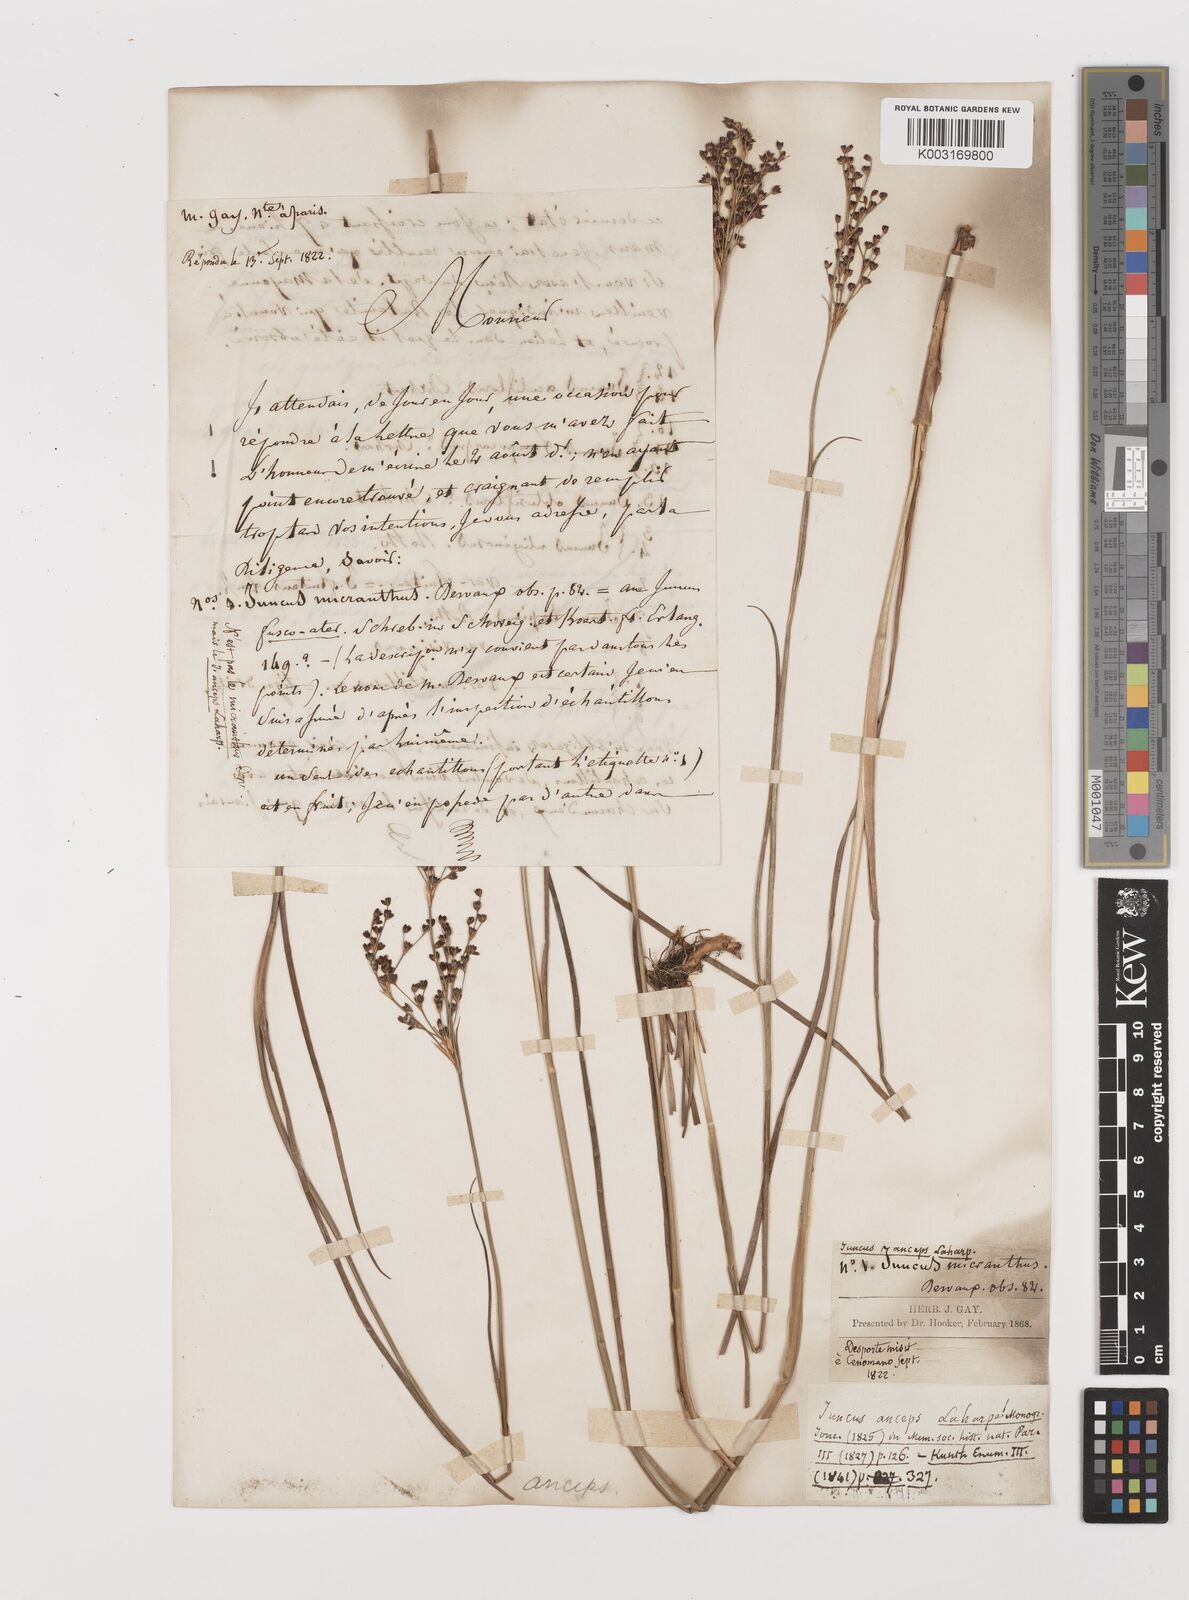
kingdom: Plantae
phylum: Tracheophyta
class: Liliopsida
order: Poales
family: Juncaceae
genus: Juncus
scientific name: Juncus anceps
